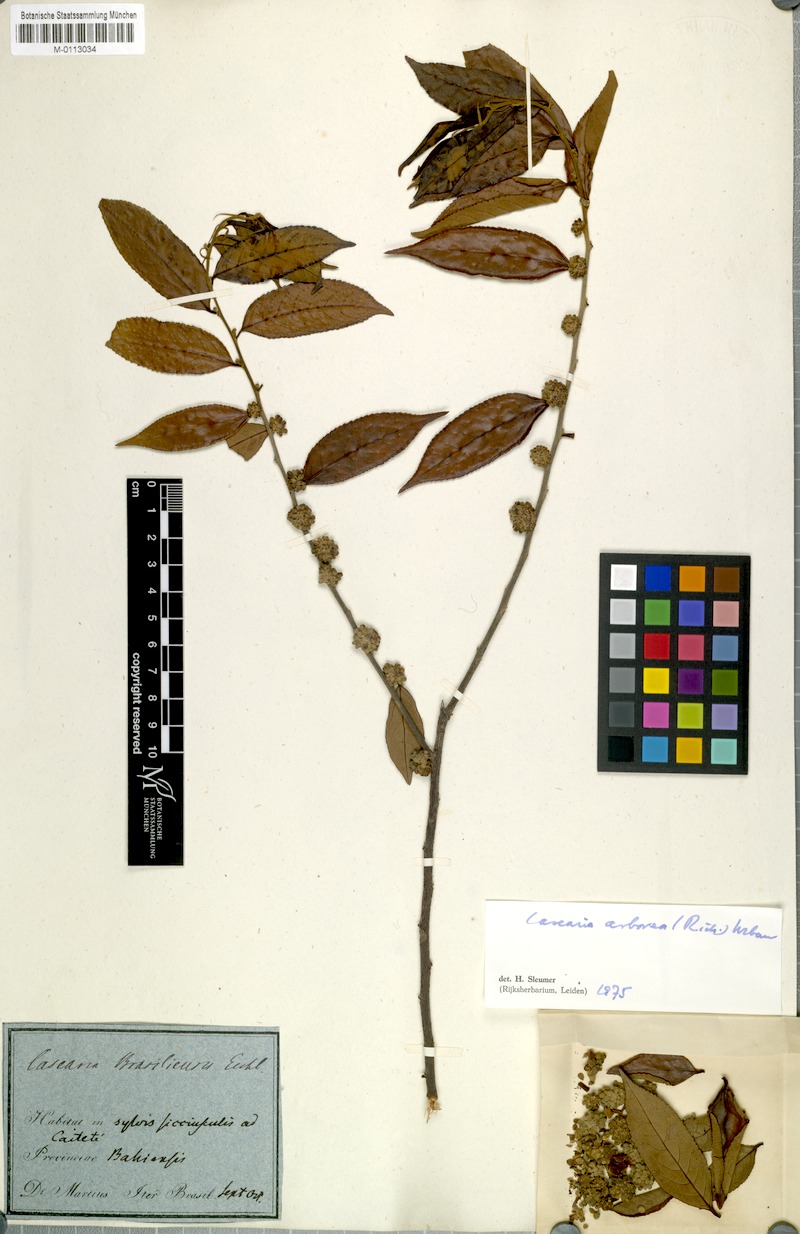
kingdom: Plantae
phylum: Tracheophyta
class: Magnoliopsida
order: Malpighiales
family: Salicaceae
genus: Casearia
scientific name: Casearia arborea
